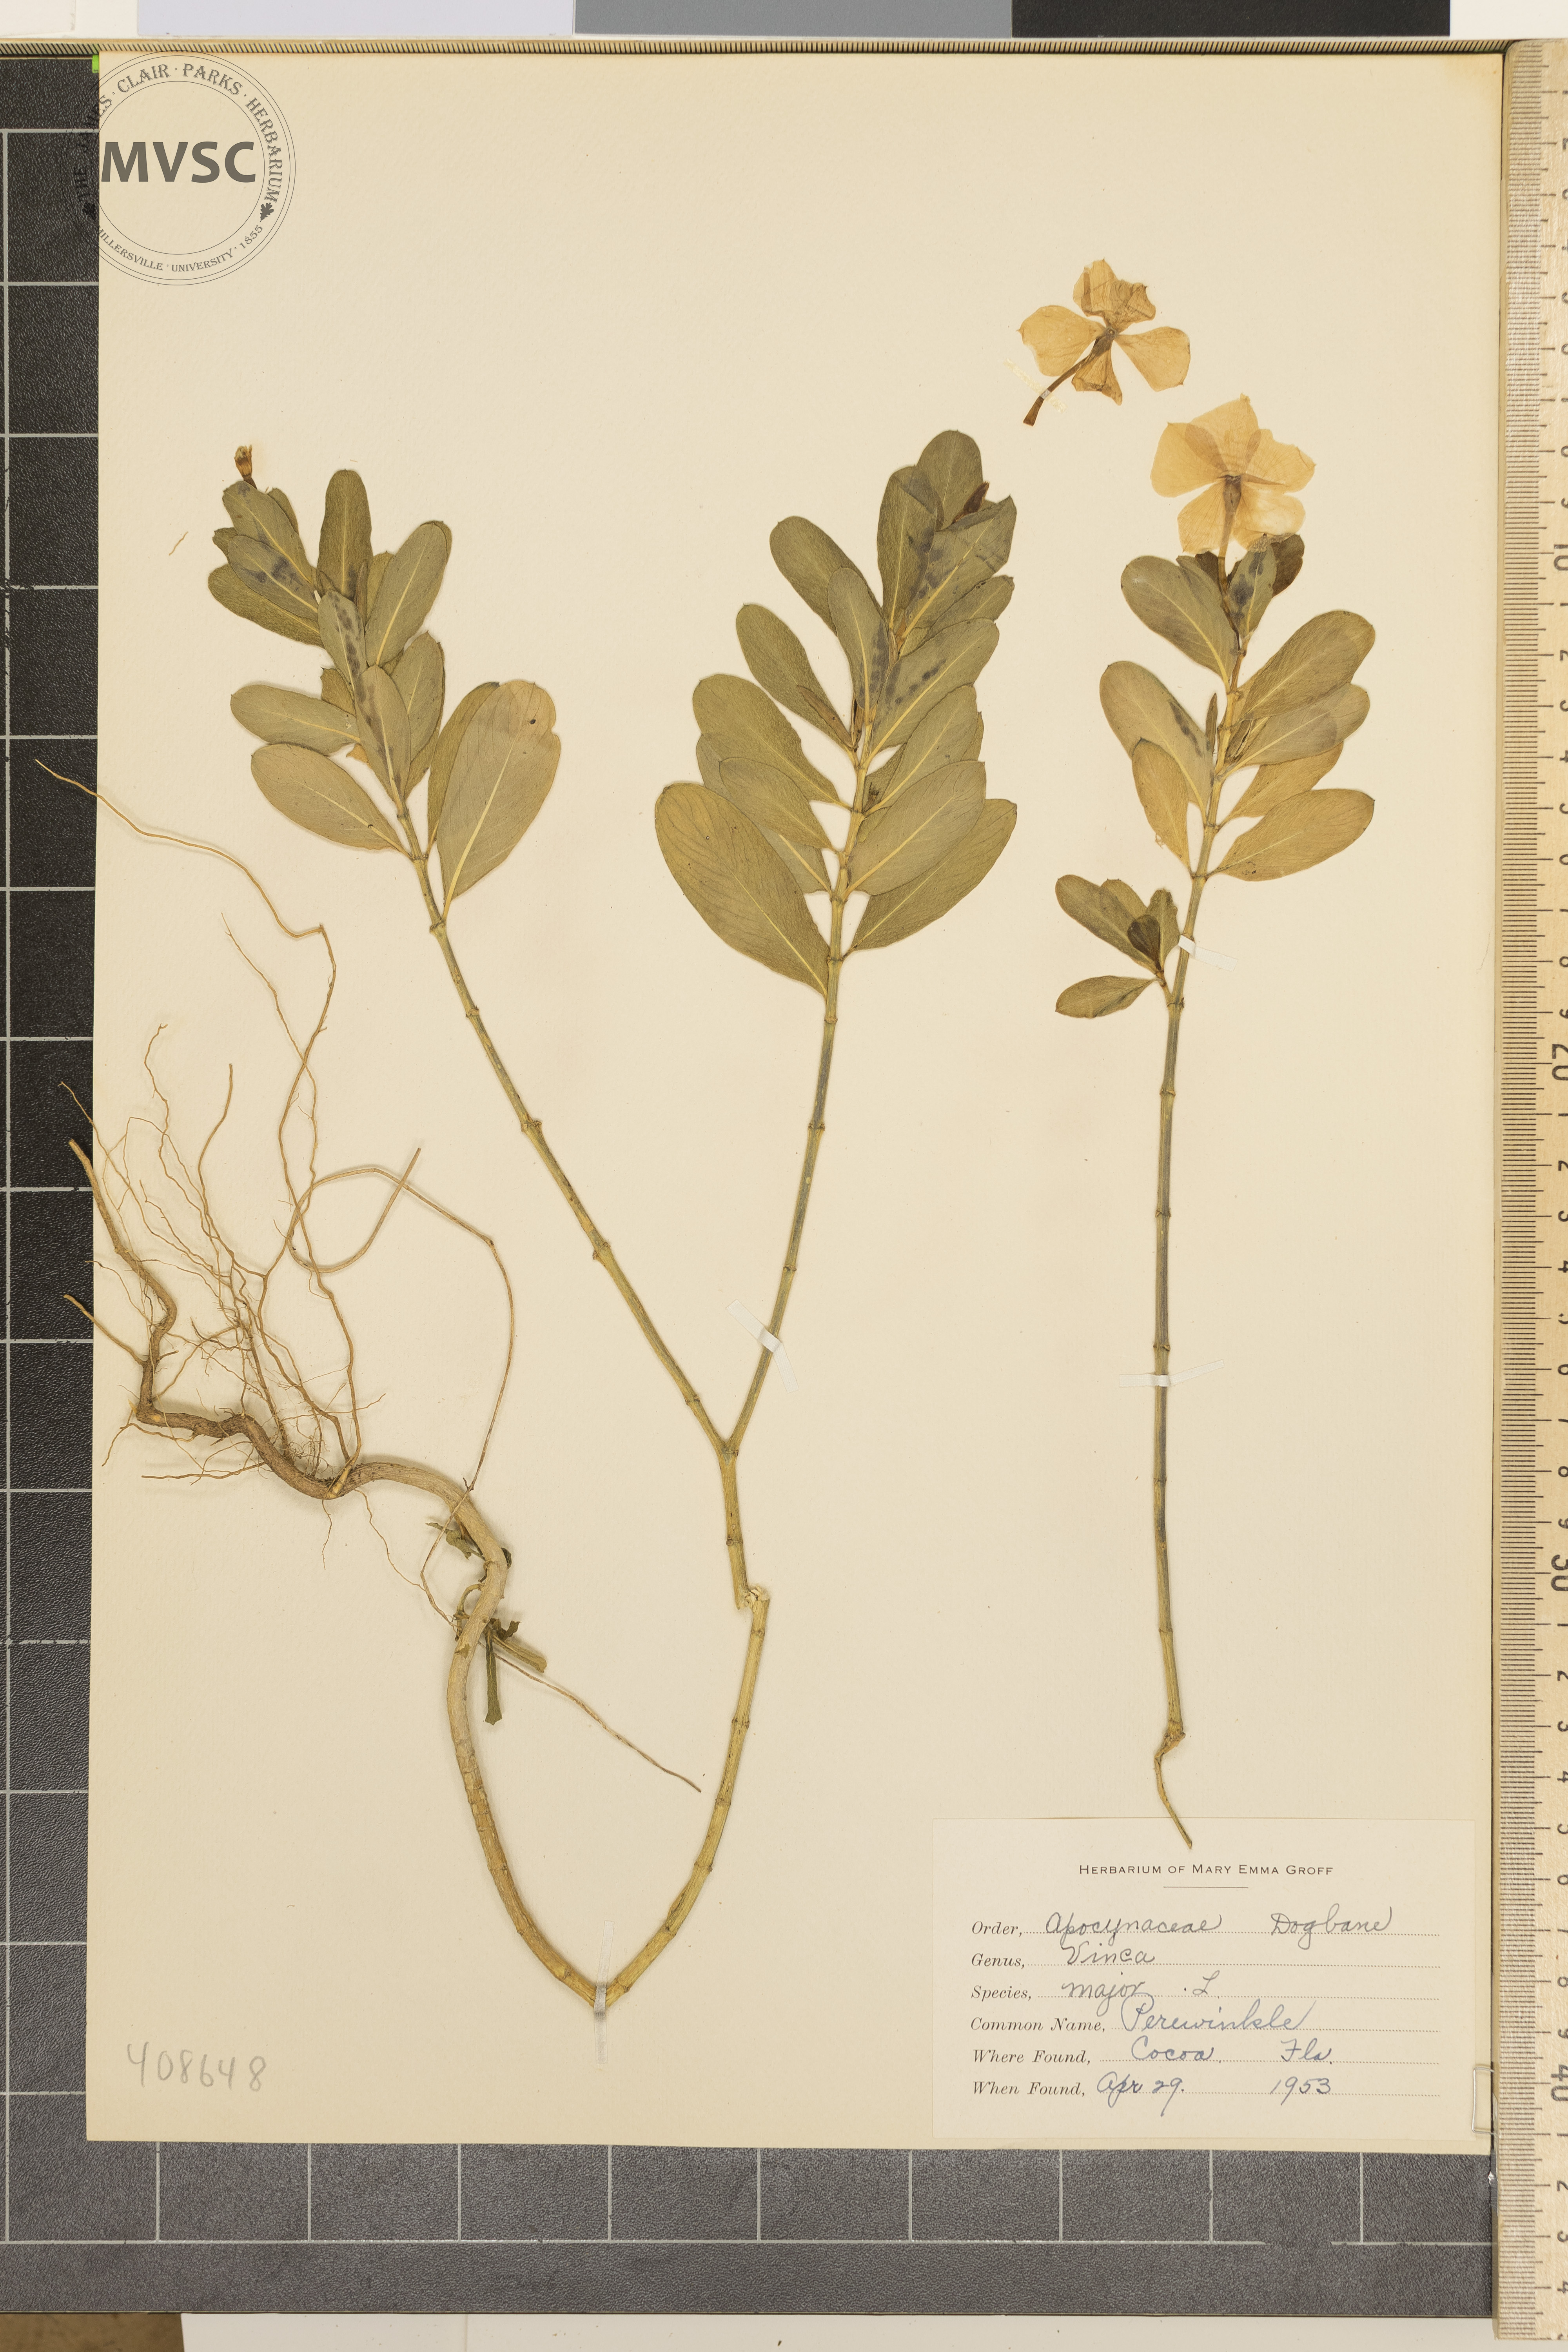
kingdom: Plantae
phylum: Tracheophyta
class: Magnoliopsida
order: Gentianales
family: Apocynaceae
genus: Vinca
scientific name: Vinca major
